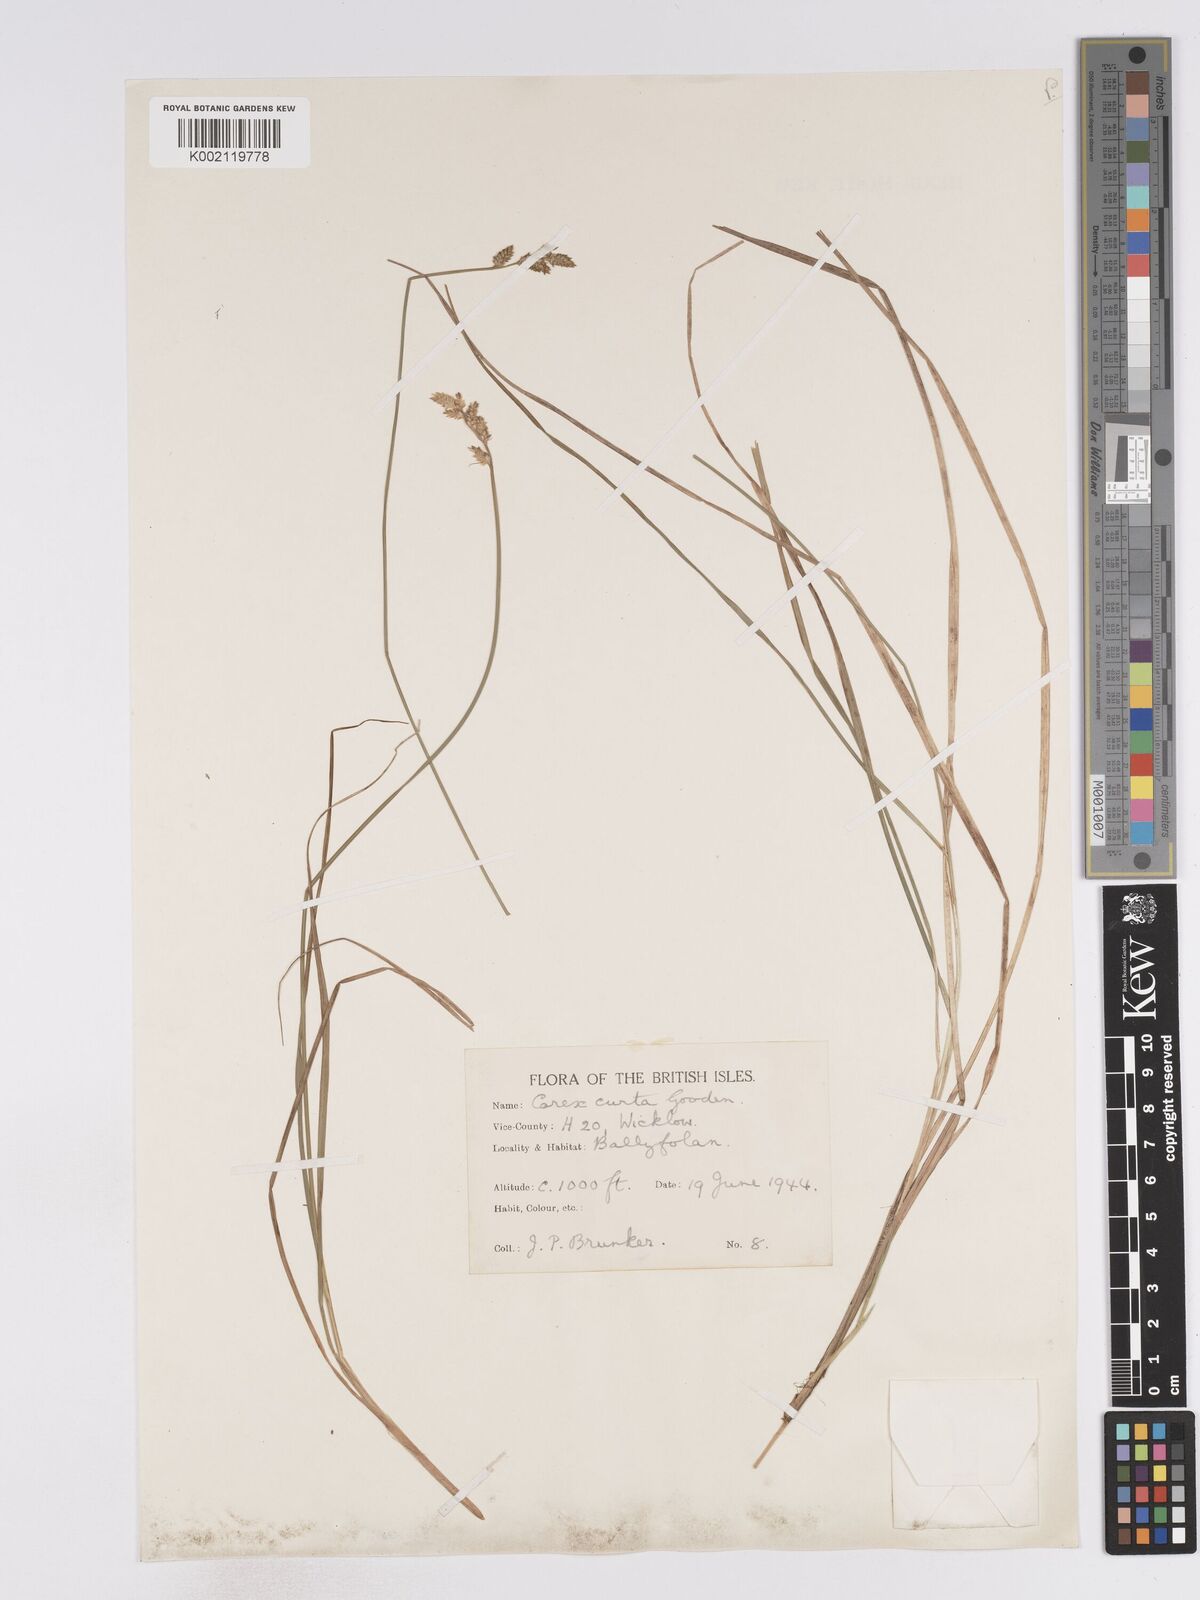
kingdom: Plantae
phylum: Tracheophyta
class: Liliopsida
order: Poales
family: Cyperaceae
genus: Carex
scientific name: Carex curta
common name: White sedge
